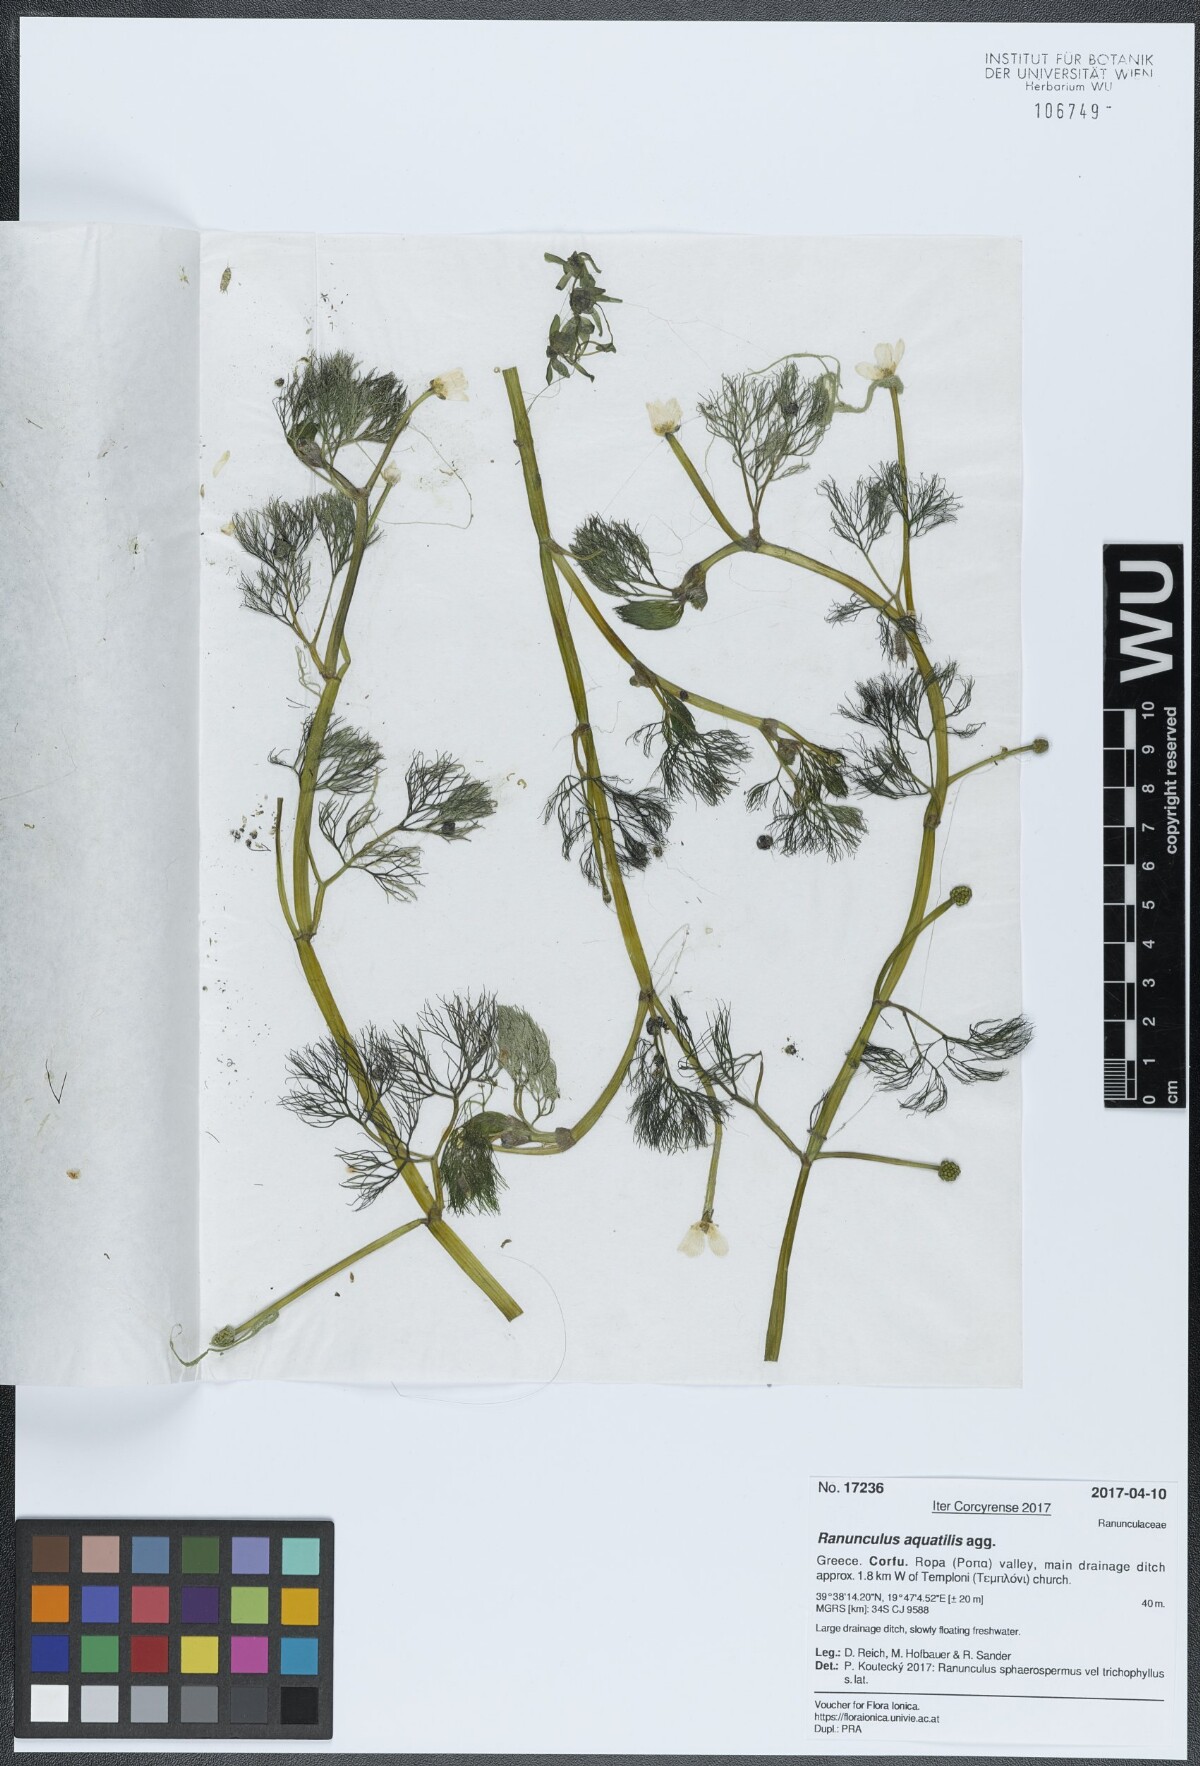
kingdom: Plantae
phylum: Tracheophyta
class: Magnoliopsida
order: Ranunculales
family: Ranunculaceae
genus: Ranunculus
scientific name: Ranunculus aquatilis
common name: Common water-crowfoot
